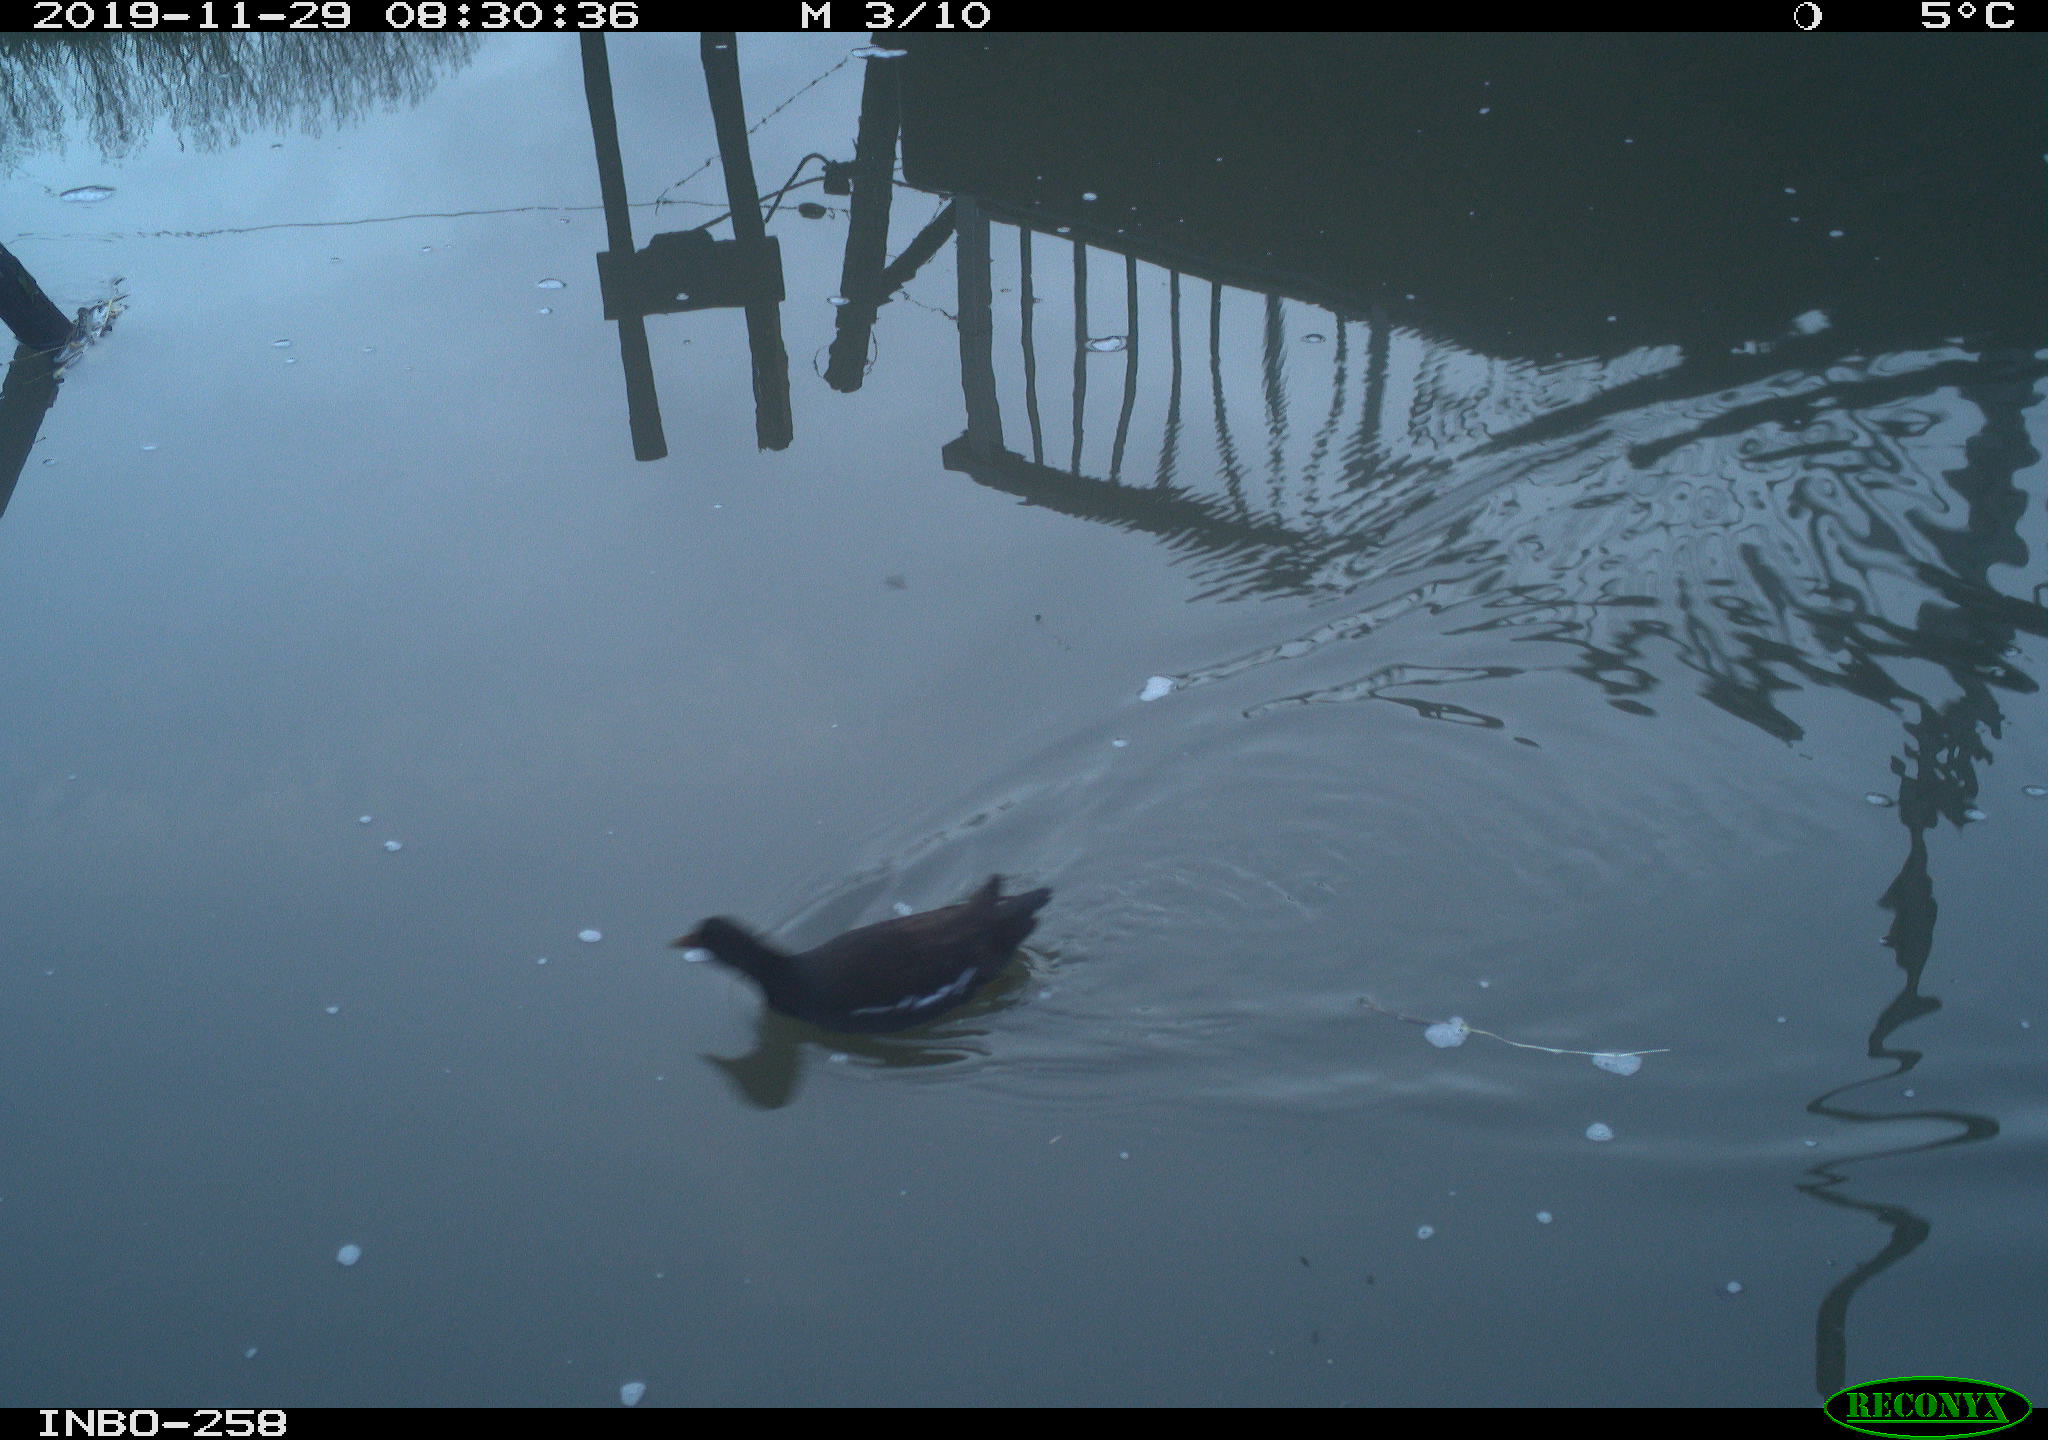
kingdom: Animalia
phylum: Chordata
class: Aves
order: Gruiformes
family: Rallidae
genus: Gallinula
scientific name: Gallinula chloropus
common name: Common moorhen
